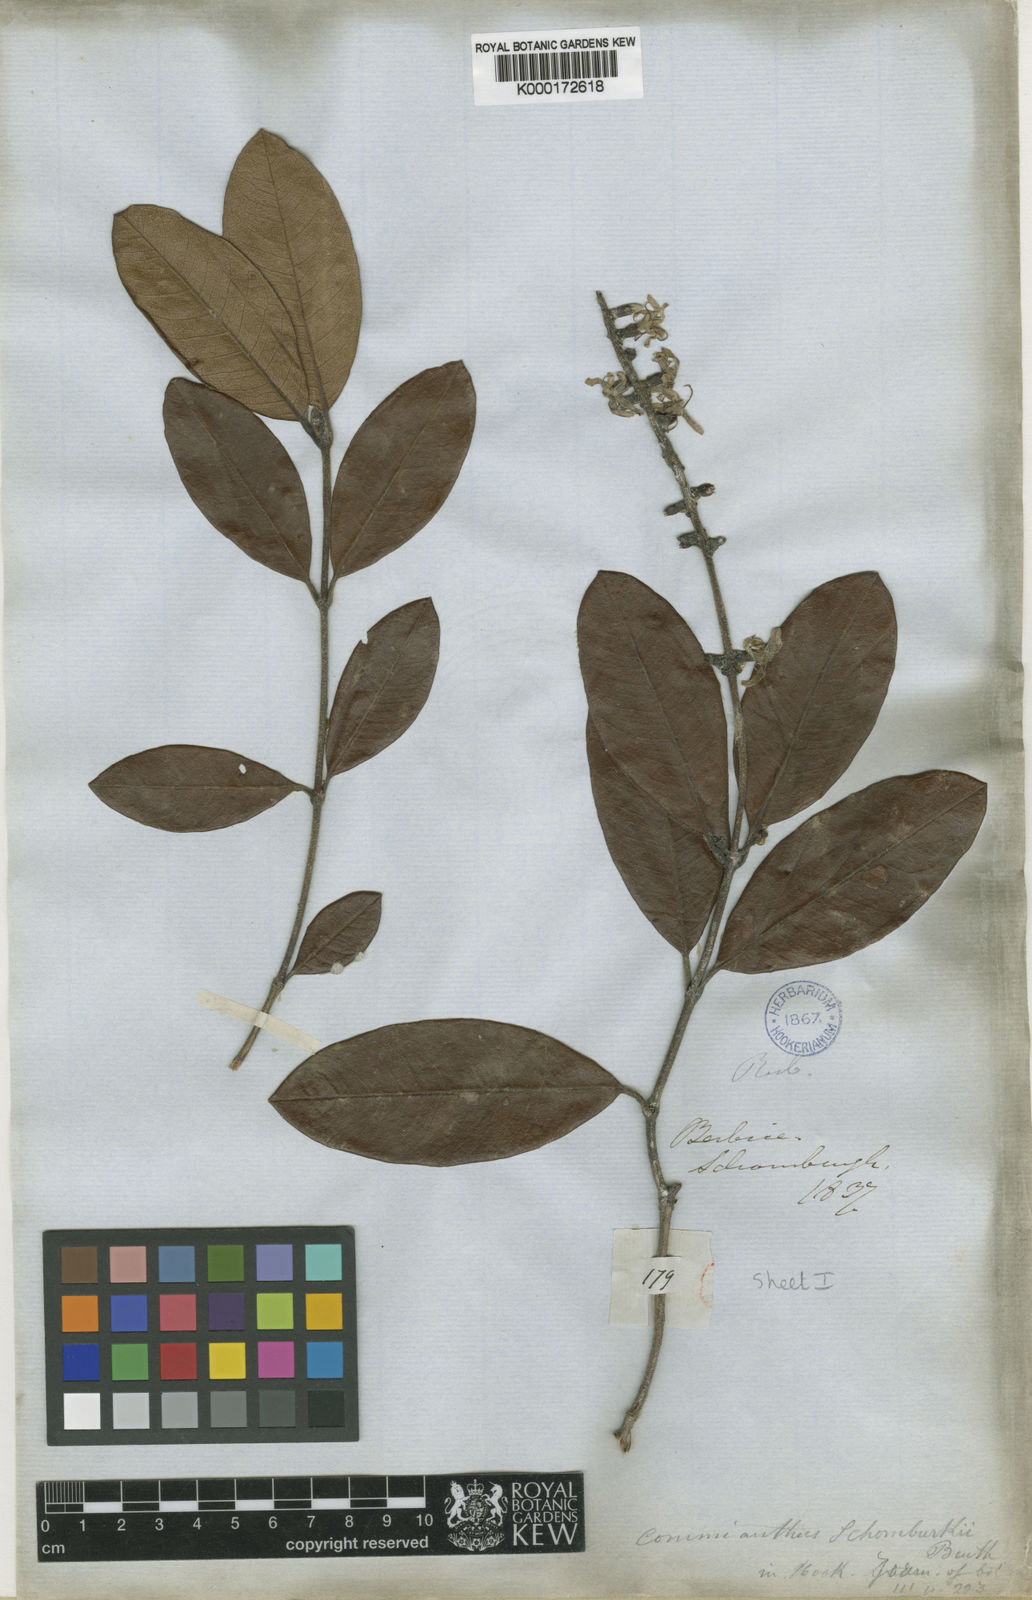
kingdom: Plantae
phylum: Tracheophyta
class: Magnoliopsida
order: Gentianales
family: Rubiaceae
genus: Retiniphyllum
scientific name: Retiniphyllum schomburgkii
